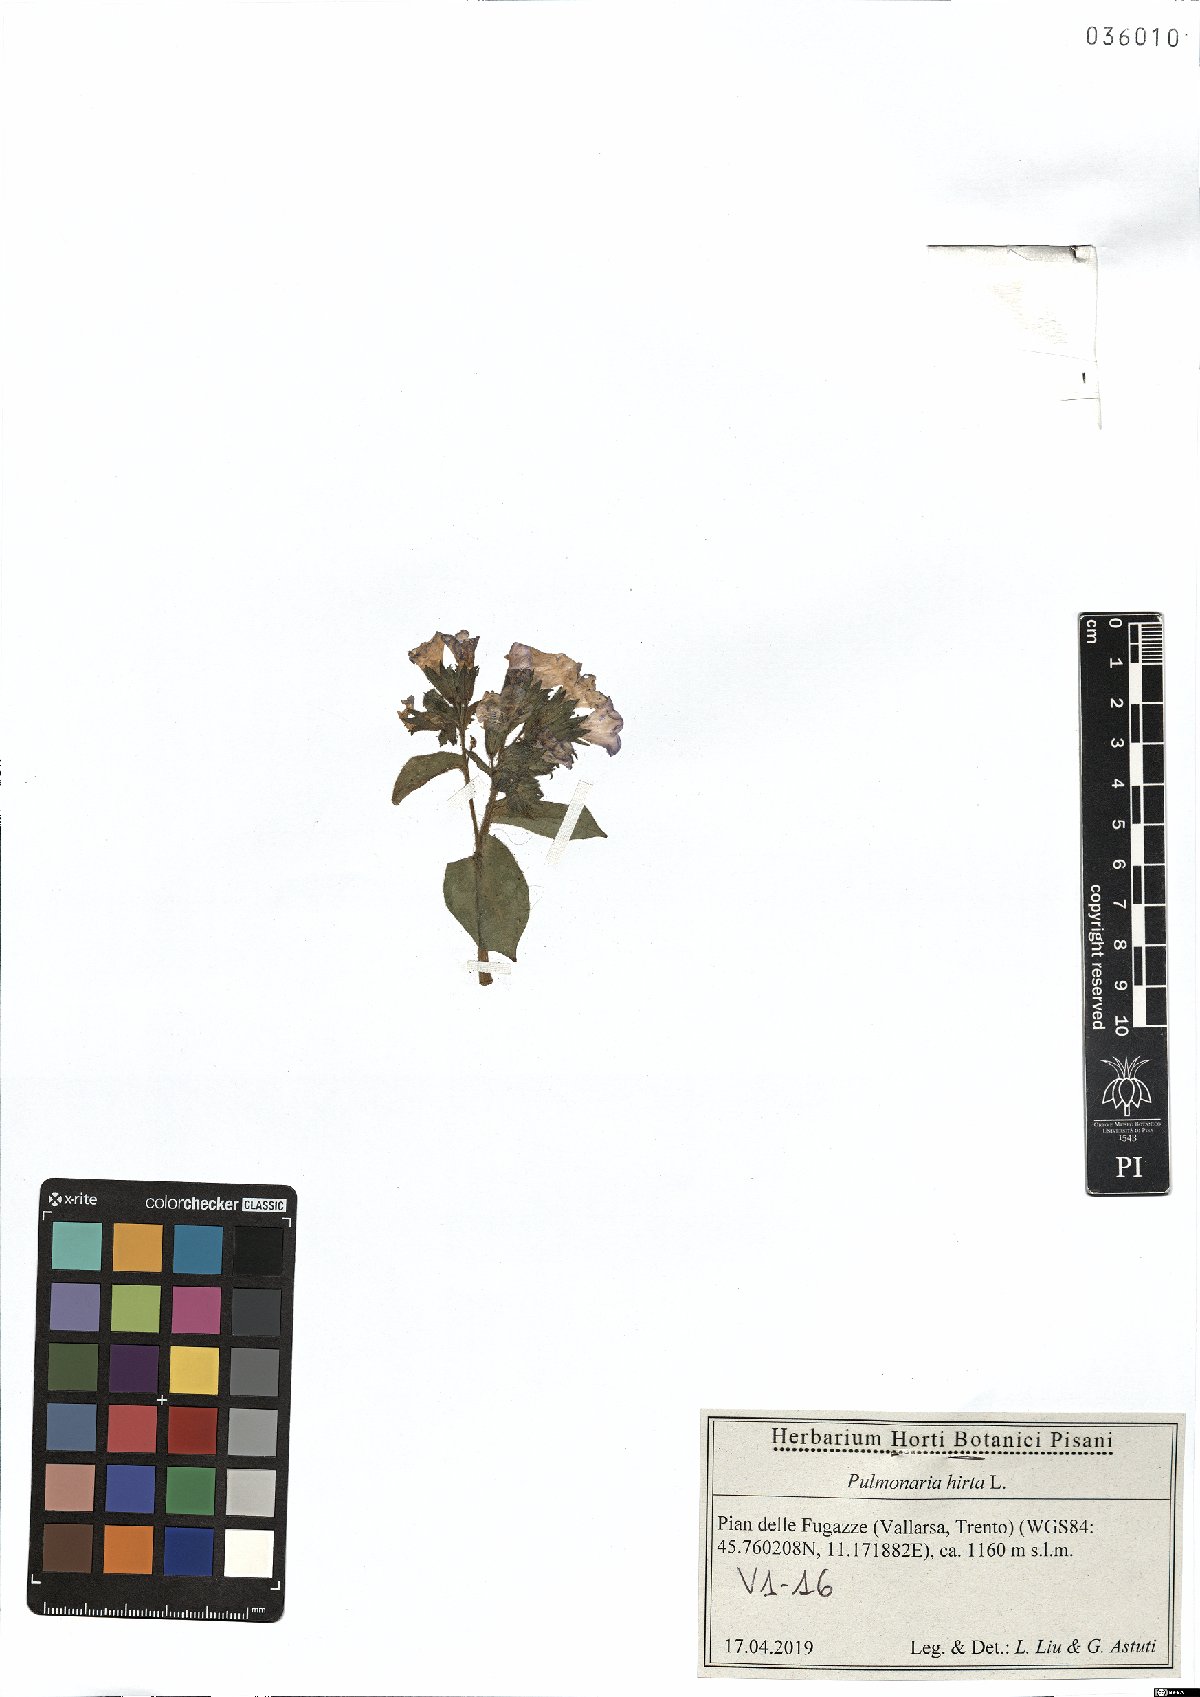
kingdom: Plantae
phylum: Tracheophyta
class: Magnoliopsida
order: Boraginales
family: Boraginaceae
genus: Pulmonaria
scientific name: Pulmonaria hirta
